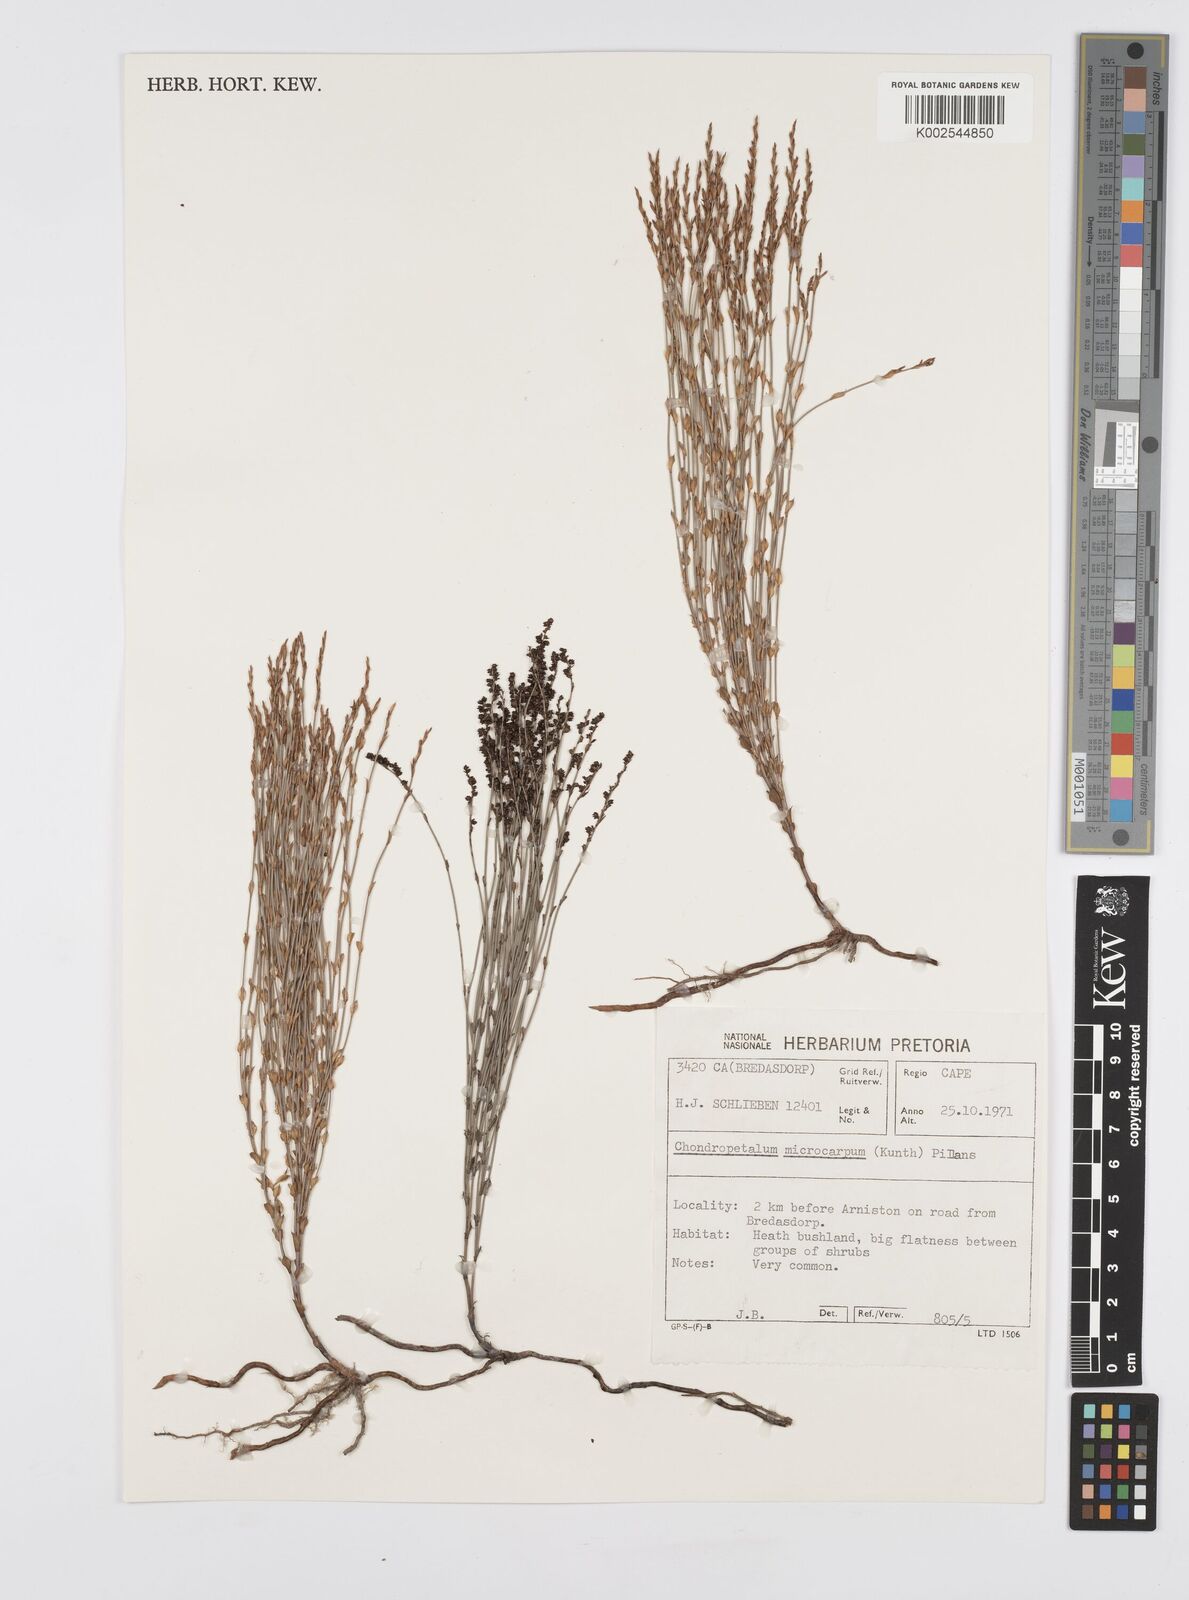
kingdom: Plantae
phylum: Tracheophyta
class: Liliopsida
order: Poales
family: Restionaceae
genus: Elegia
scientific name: Elegia microcarpa
